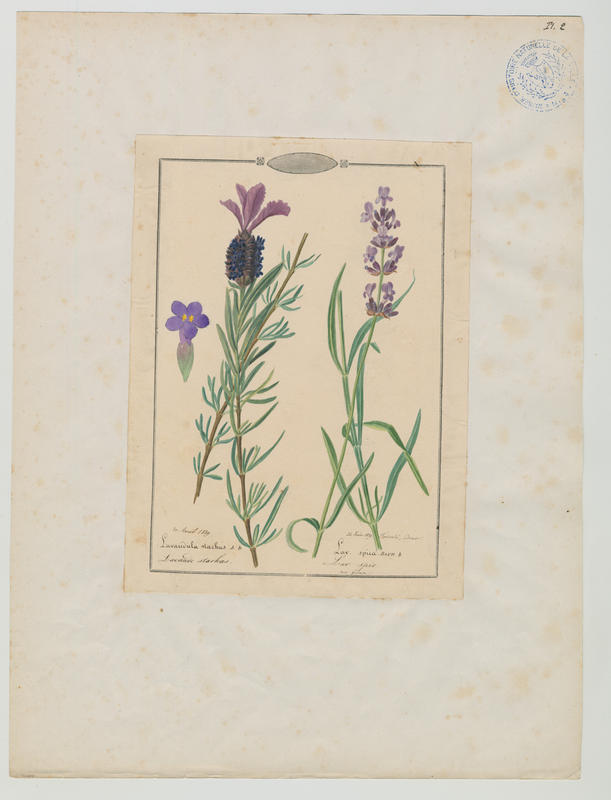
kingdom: Plantae
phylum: Tracheophyta
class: Magnoliopsida
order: Lamiales
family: Lamiaceae
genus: Lavandula
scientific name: Lavandula angustifolia
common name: Garden lavender
